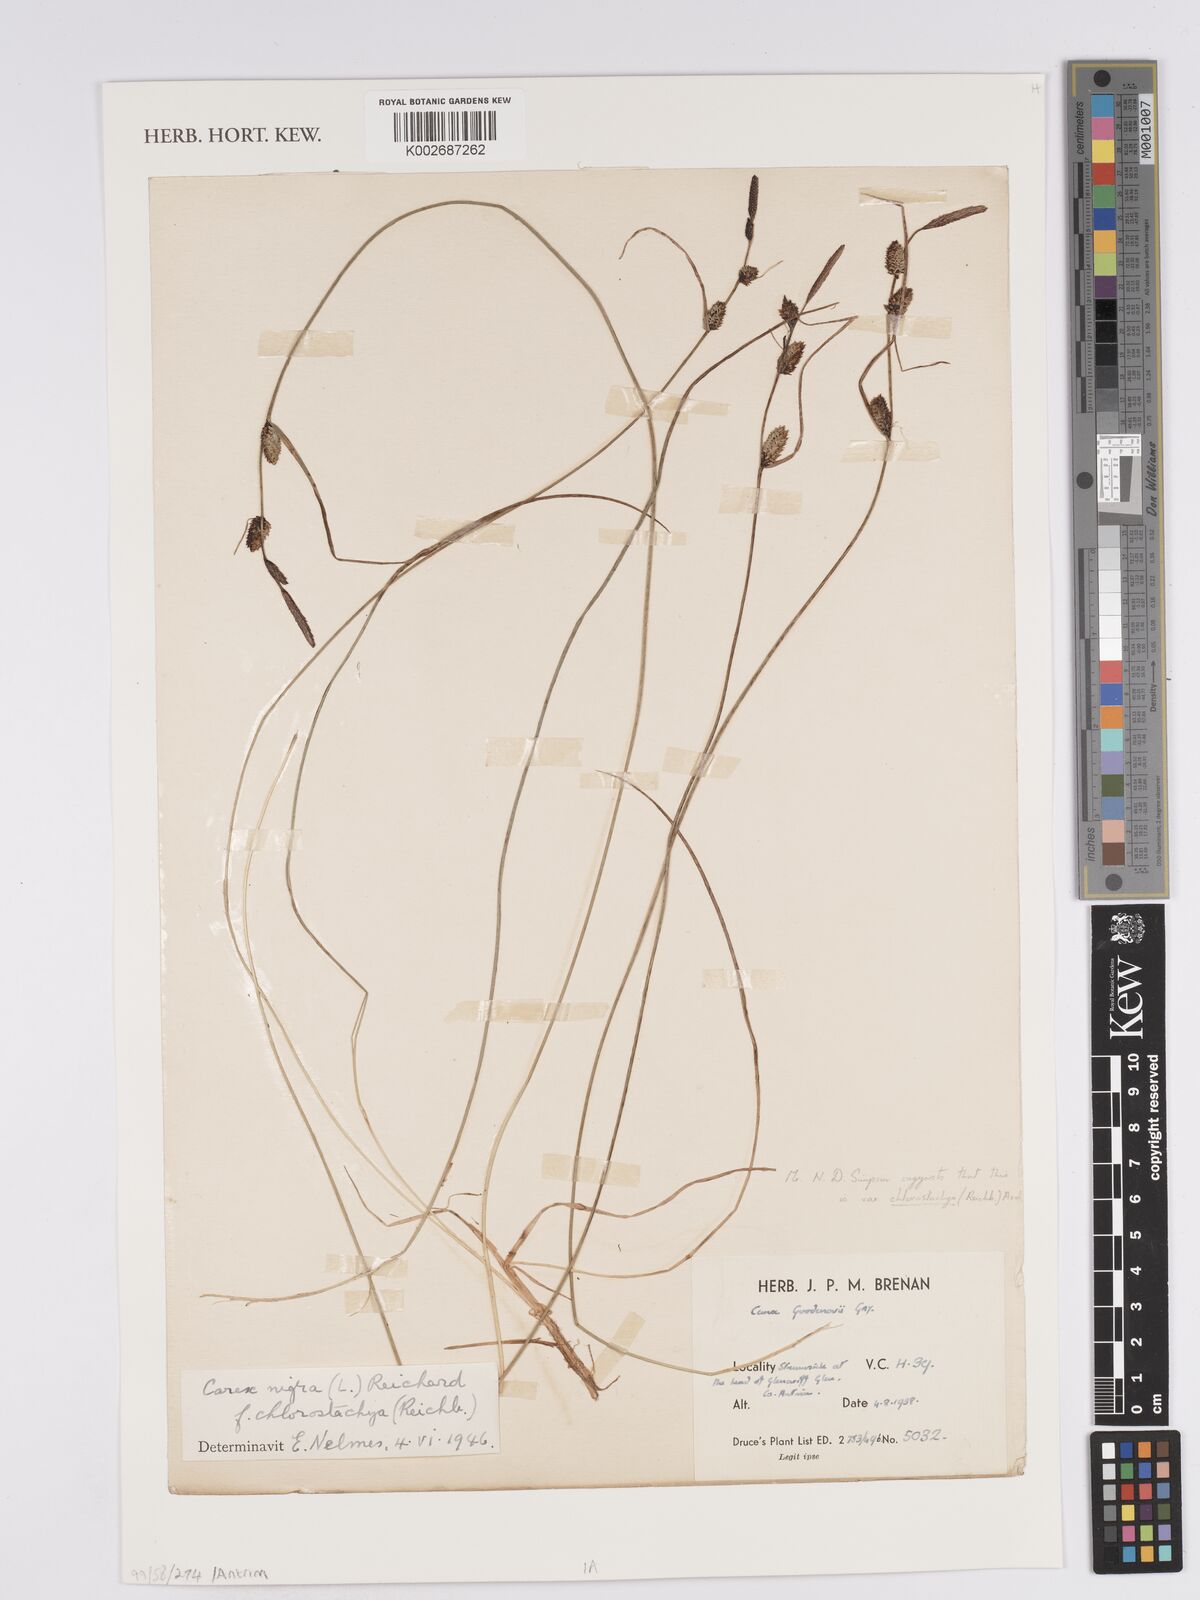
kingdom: Plantae
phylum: Tracheophyta
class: Liliopsida
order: Poales
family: Cyperaceae
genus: Carex
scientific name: Carex nigra
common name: Common sedge
